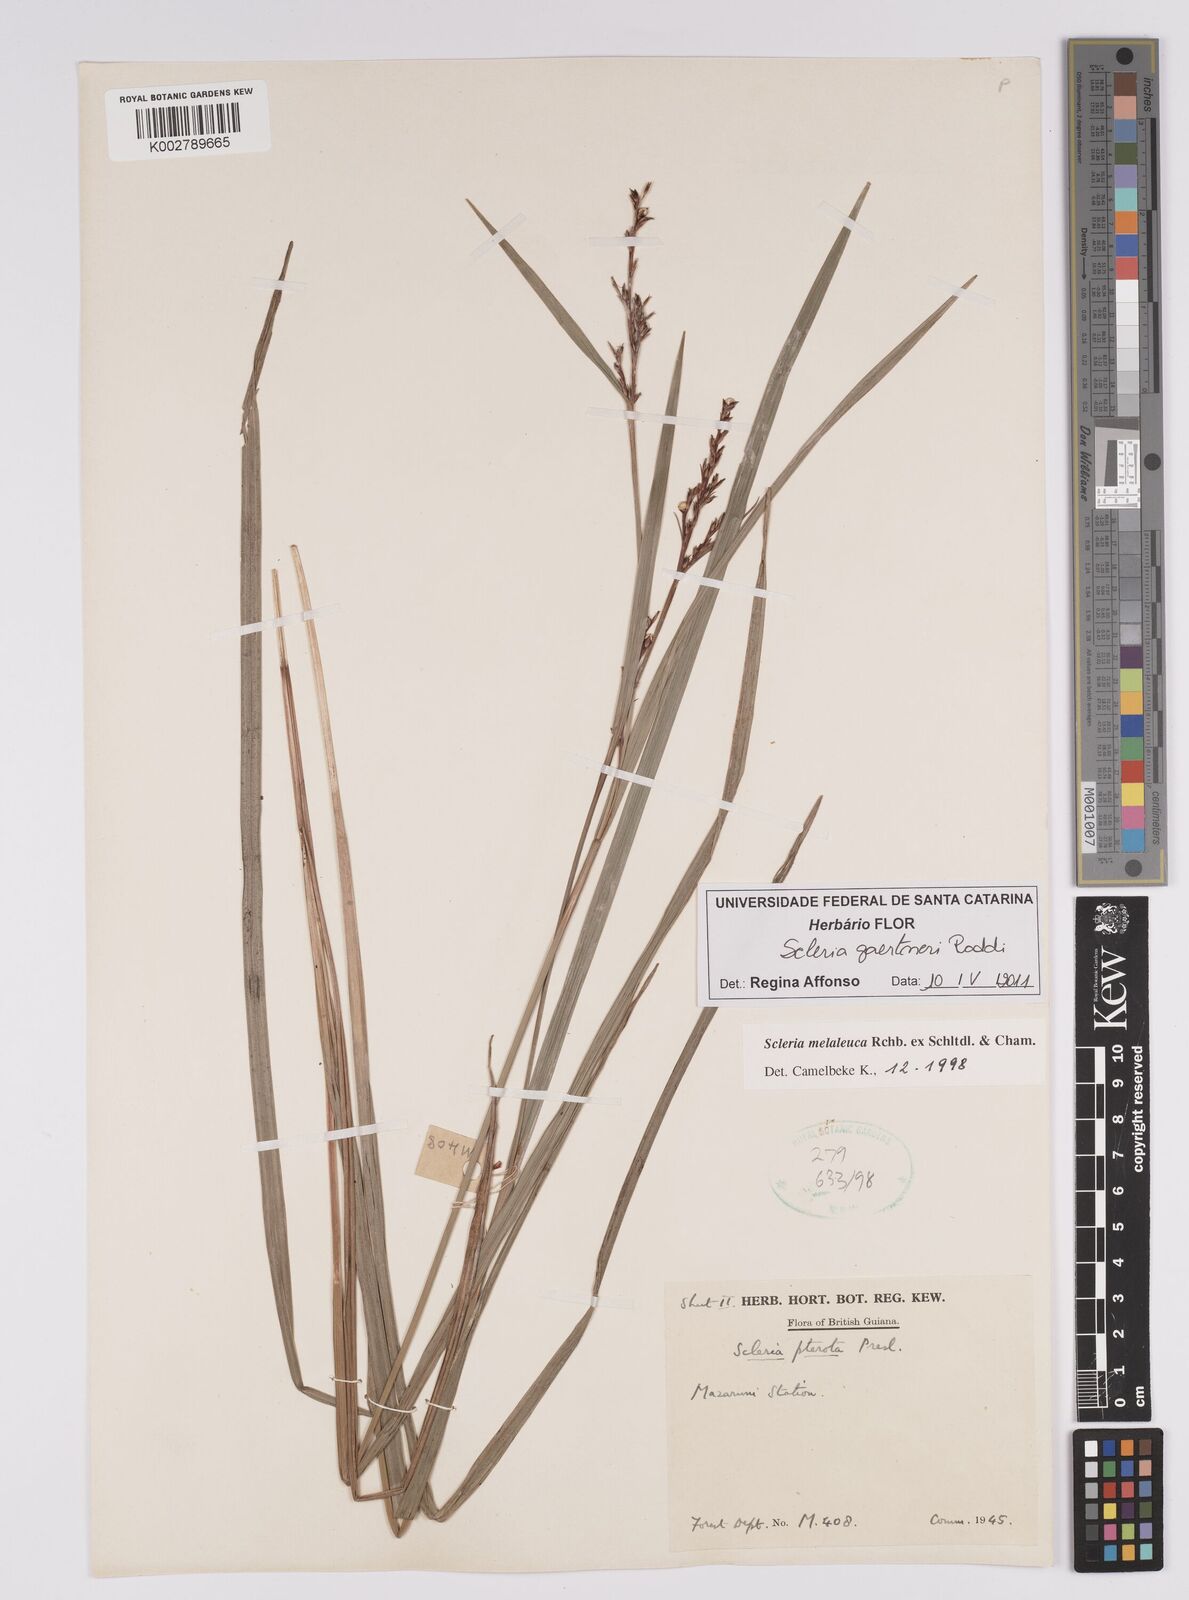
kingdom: Plantae
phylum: Tracheophyta
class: Liliopsida
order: Poales
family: Cyperaceae
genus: Scleria
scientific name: Scleria gaertneri
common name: Cortadera blanca
